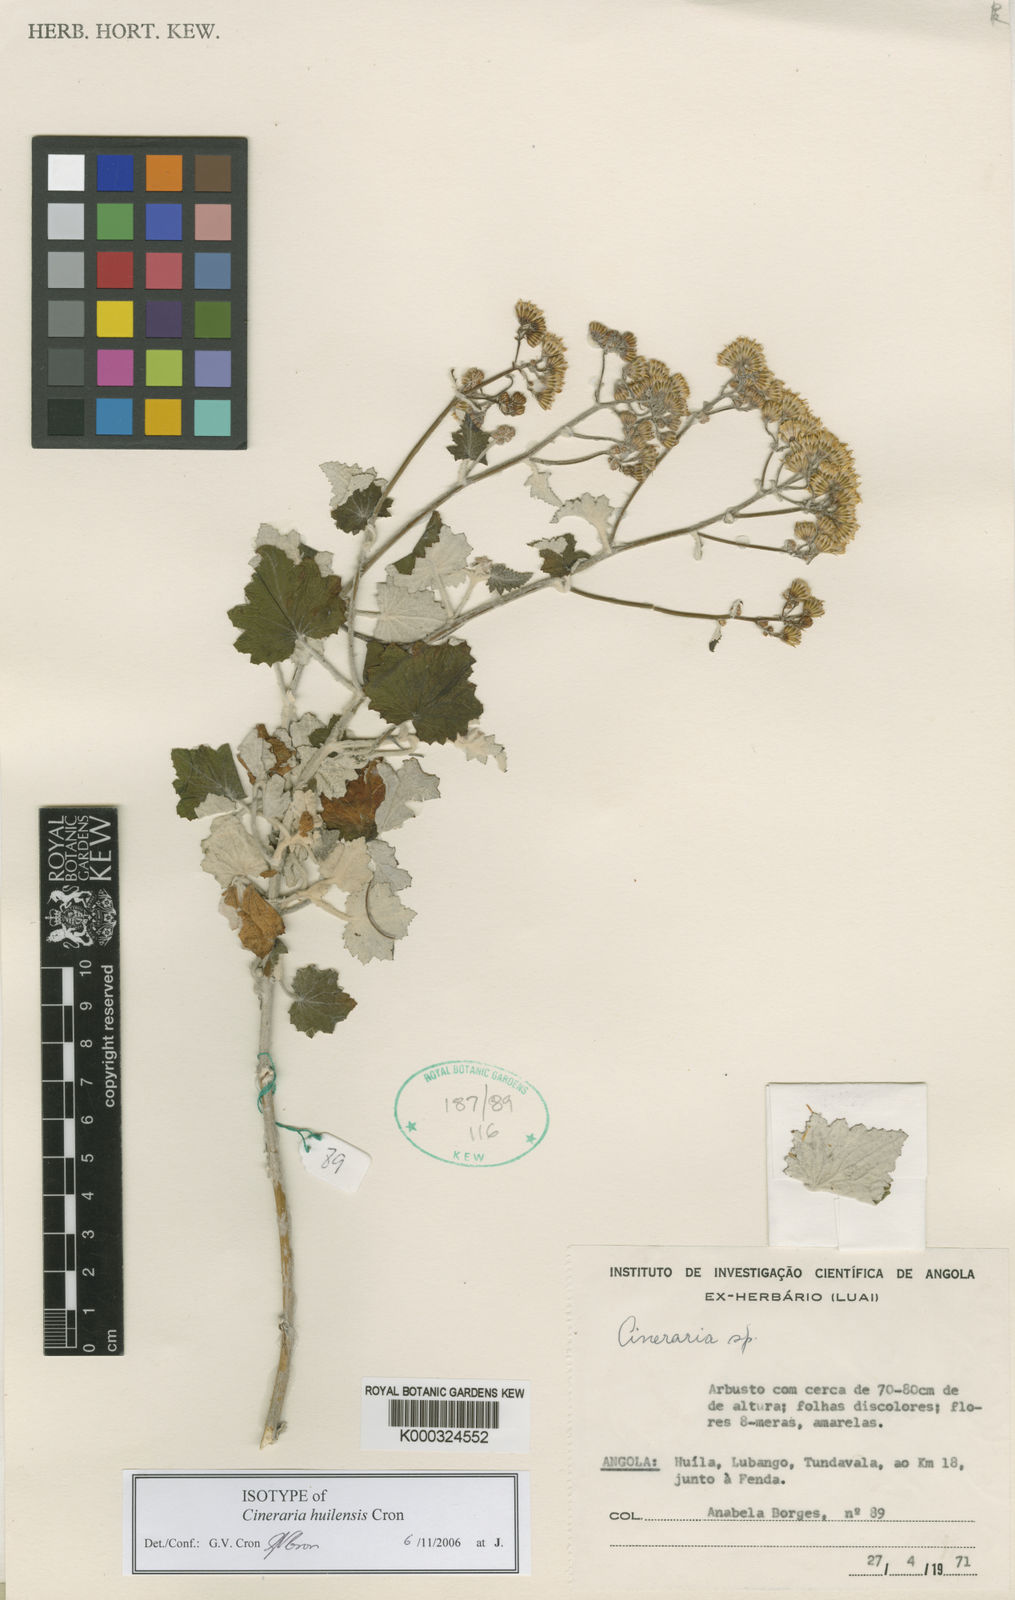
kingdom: Plantae
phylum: Tracheophyta
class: Magnoliopsida
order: Asterales
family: Asteraceae
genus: Cineraria
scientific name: Cineraria huilensis
